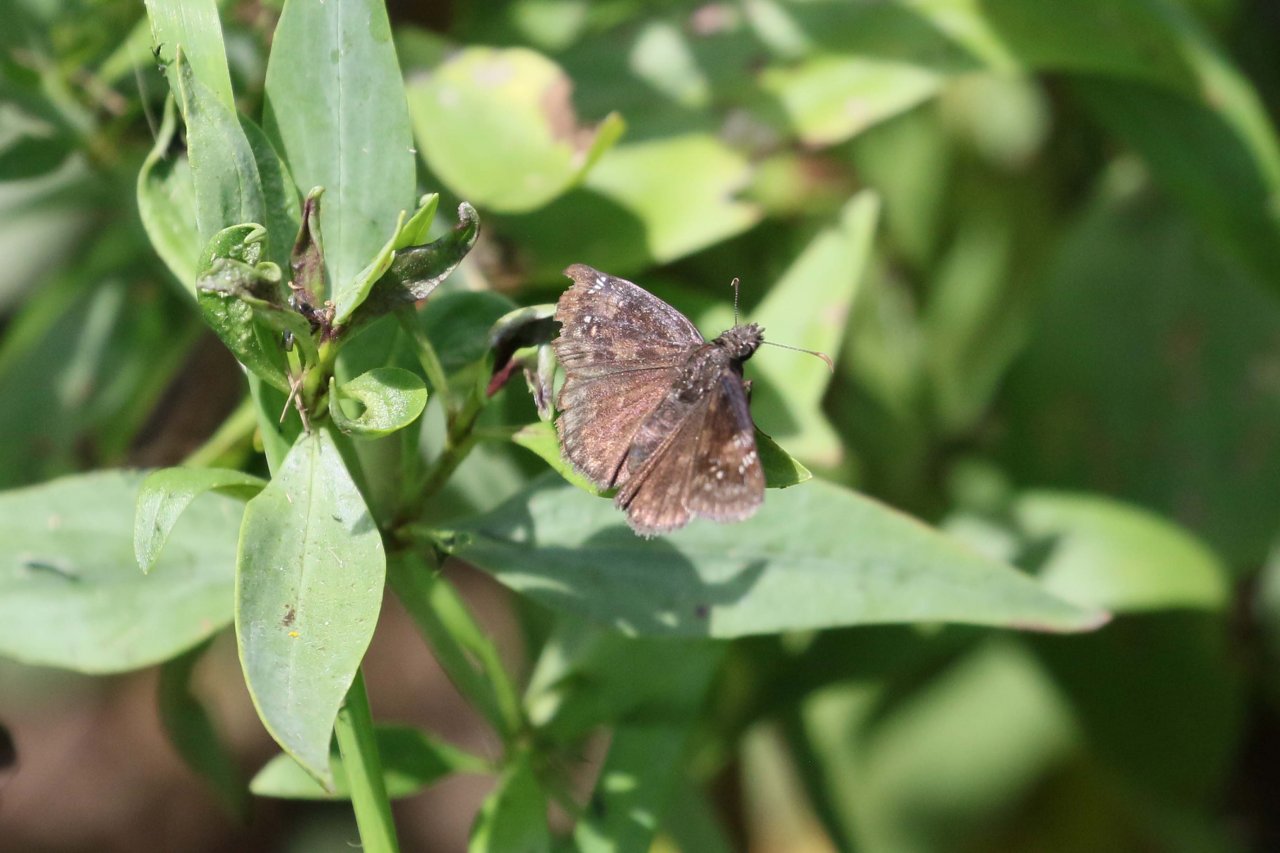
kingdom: Animalia
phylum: Arthropoda
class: Insecta
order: Lepidoptera
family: Hesperiidae
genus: Gesta
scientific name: Gesta
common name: Wild Indigo Duskywing
